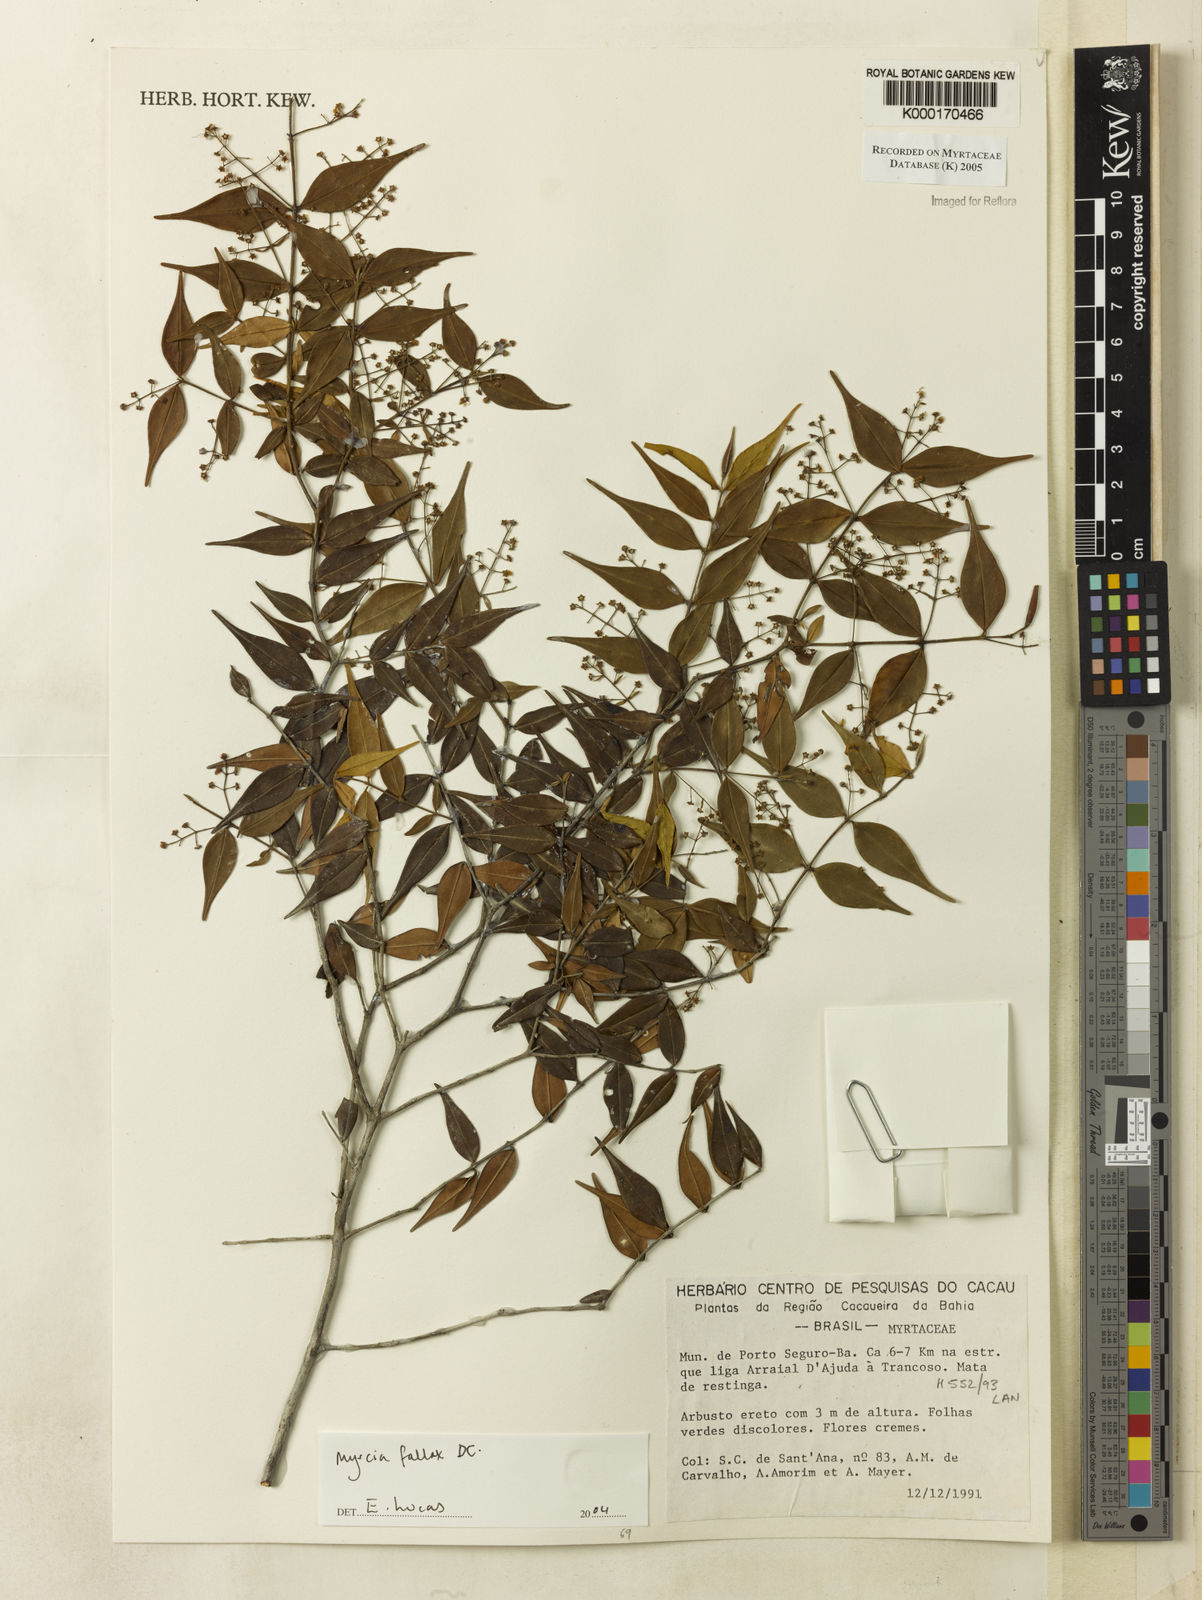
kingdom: Plantae
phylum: Tracheophyta
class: Magnoliopsida
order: Myrtales
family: Myrtaceae
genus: Myrcia
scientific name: Myrcia
